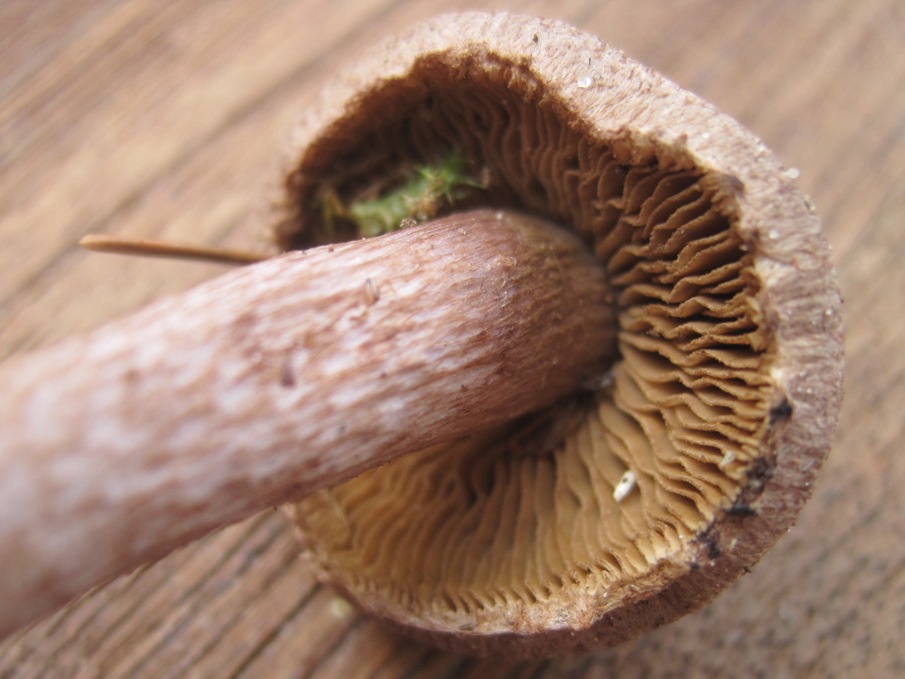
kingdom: Fungi
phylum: Basidiomycota
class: Agaricomycetes
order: Agaricales
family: Inocybaceae
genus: Inocybe
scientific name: Inocybe cincinnata
